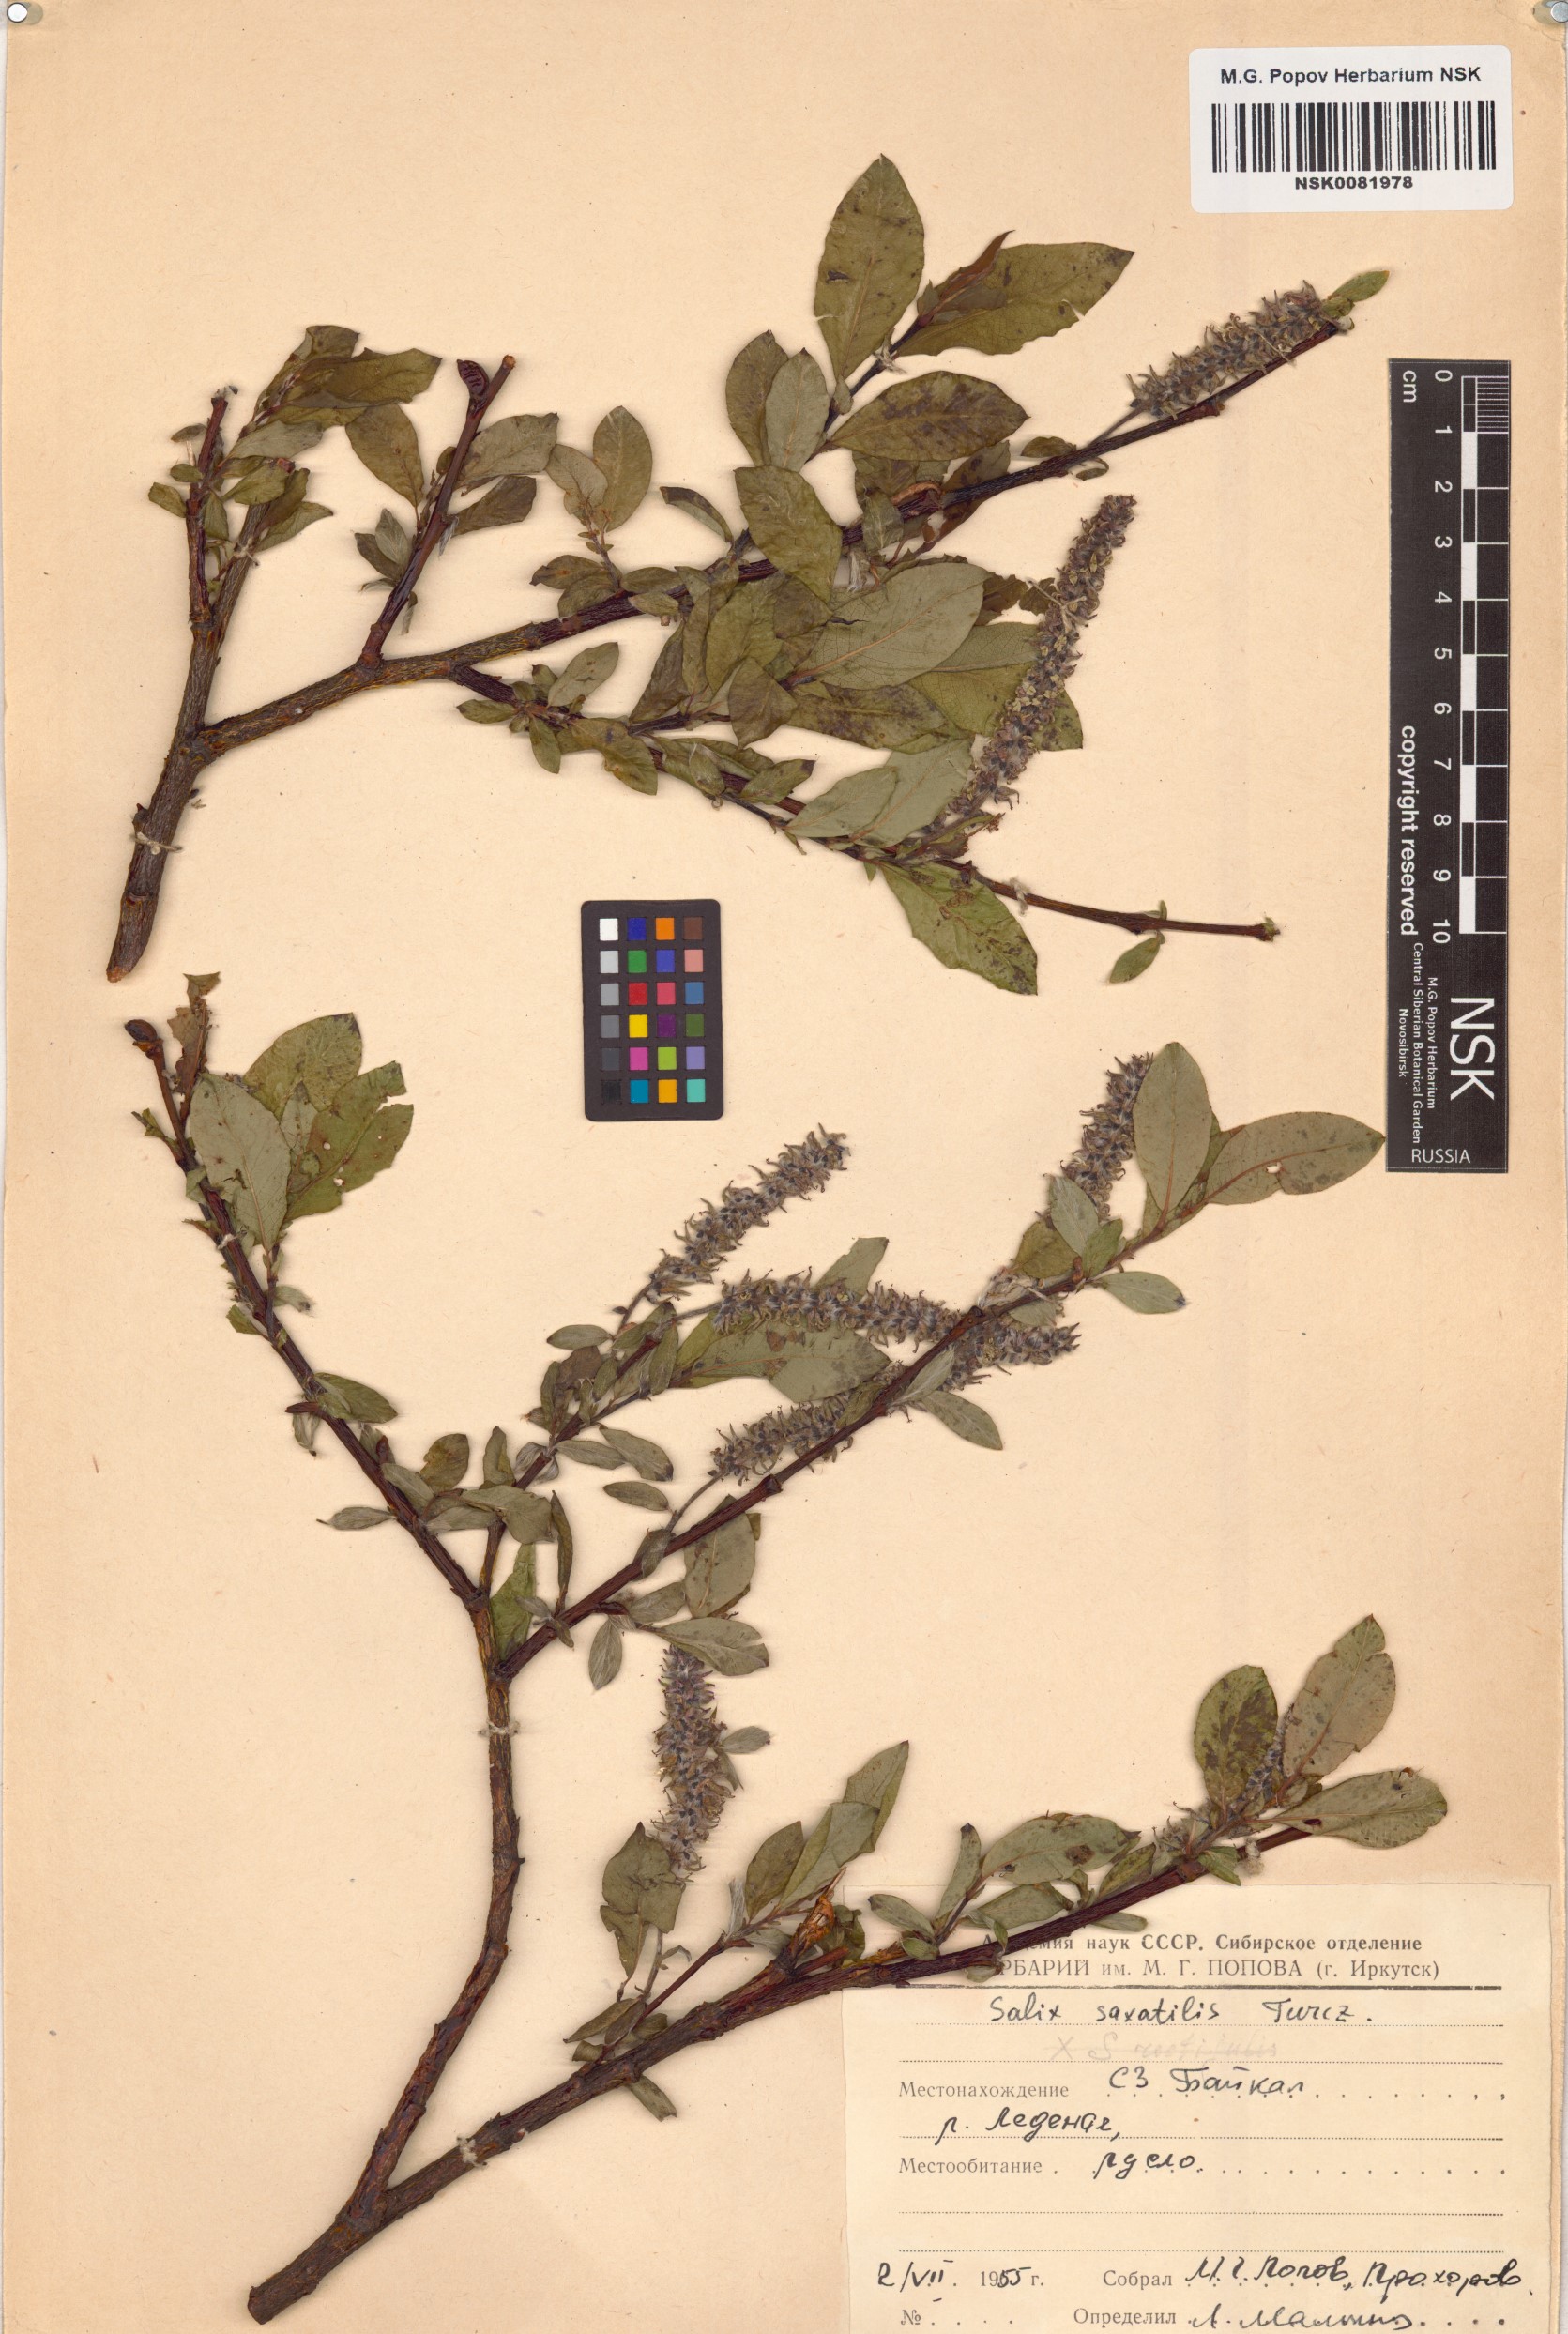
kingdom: Plantae
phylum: Tracheophyta
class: Magnoliopsida
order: Malpighiales
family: Salicaceae
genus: Salix
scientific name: Salix saxatilis
